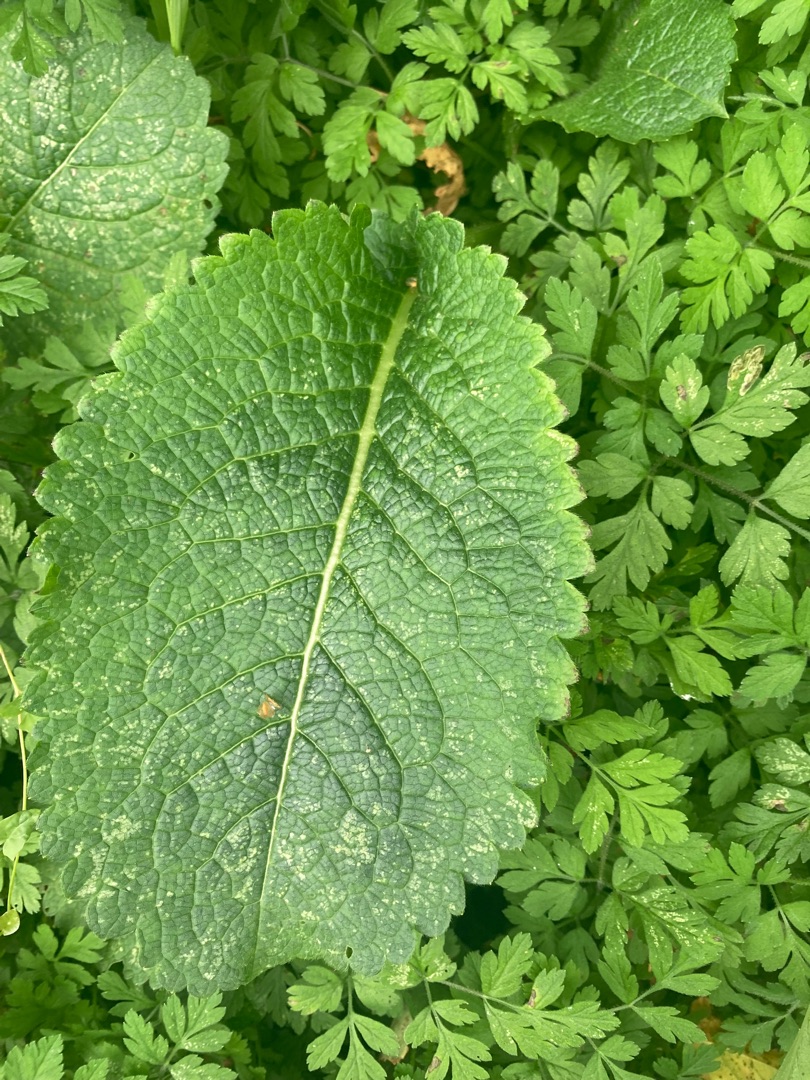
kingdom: Plantae
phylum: Tracheophyta
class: Magnoliopsida
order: Dipsacales
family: Caprifoliaceae
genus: Dipsacus
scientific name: Dipsacus strigosus
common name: Pindsvin-kartebolle
